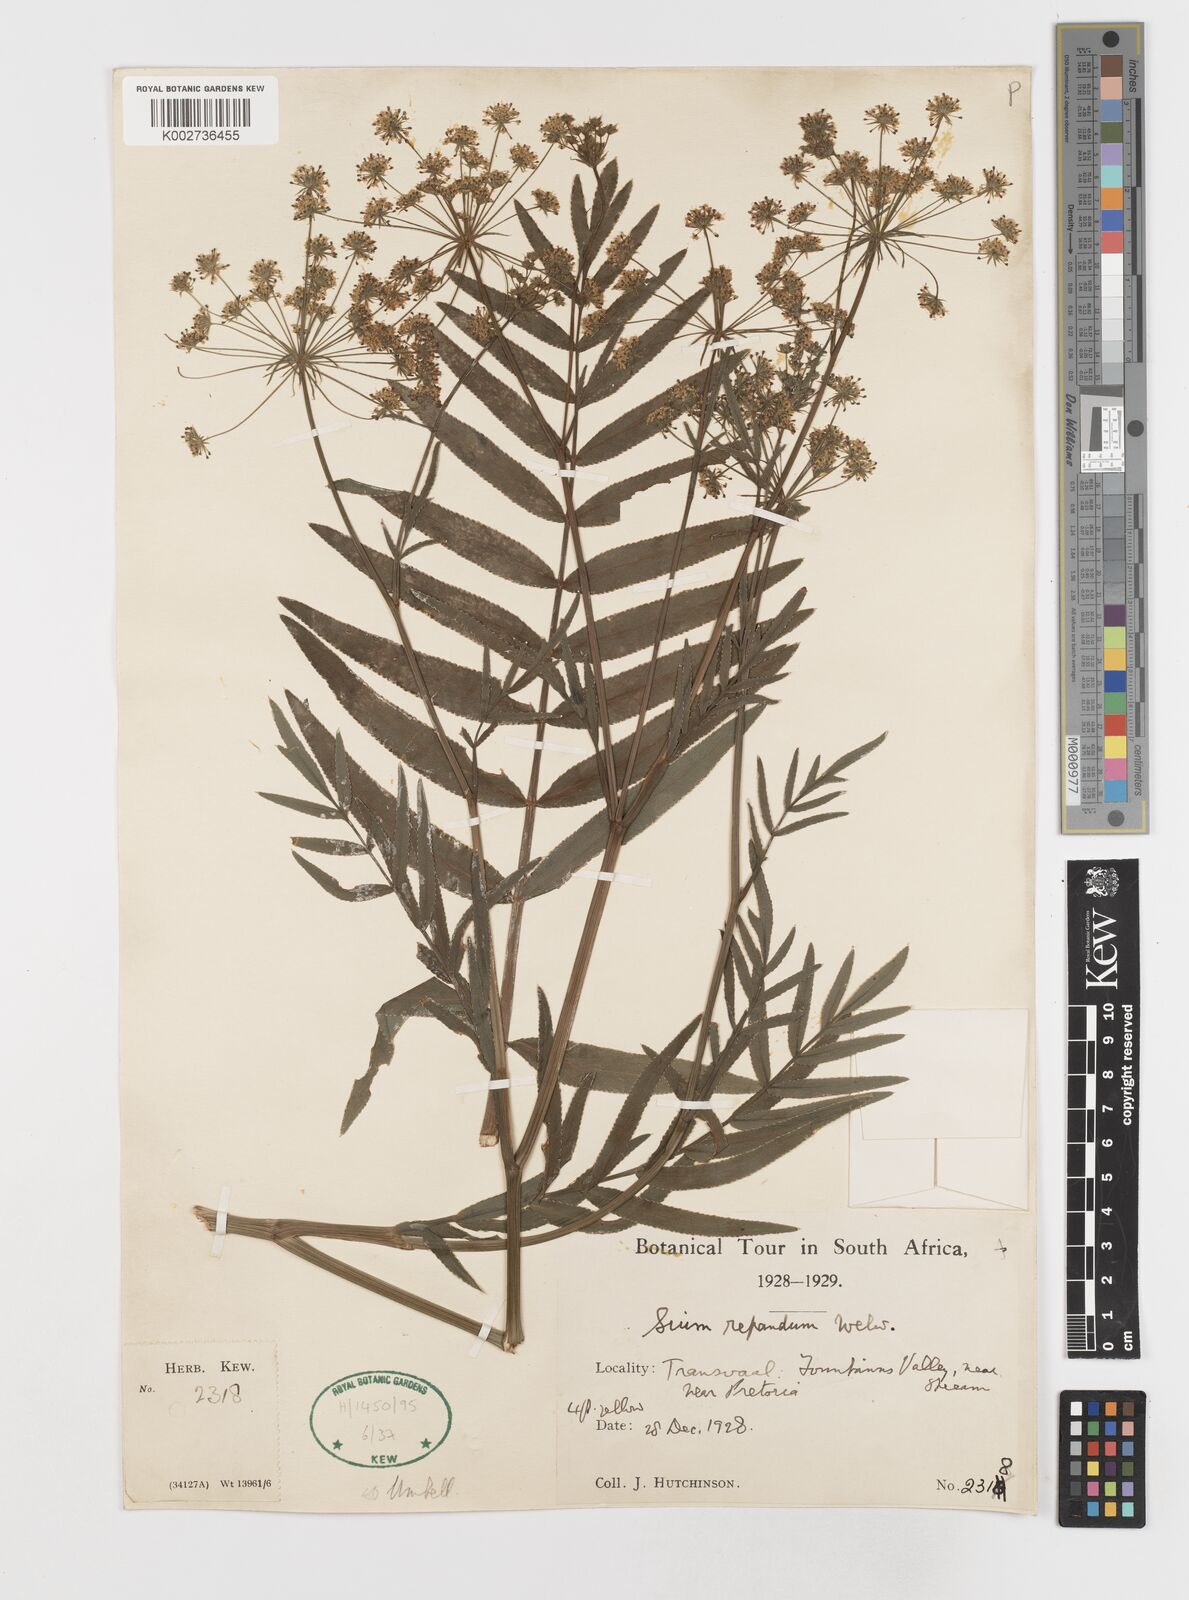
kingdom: Plantae
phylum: Tracheophyta
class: Magnoliopsida
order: Apiales
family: Apiaceae
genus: Berula
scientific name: Berula repanda
